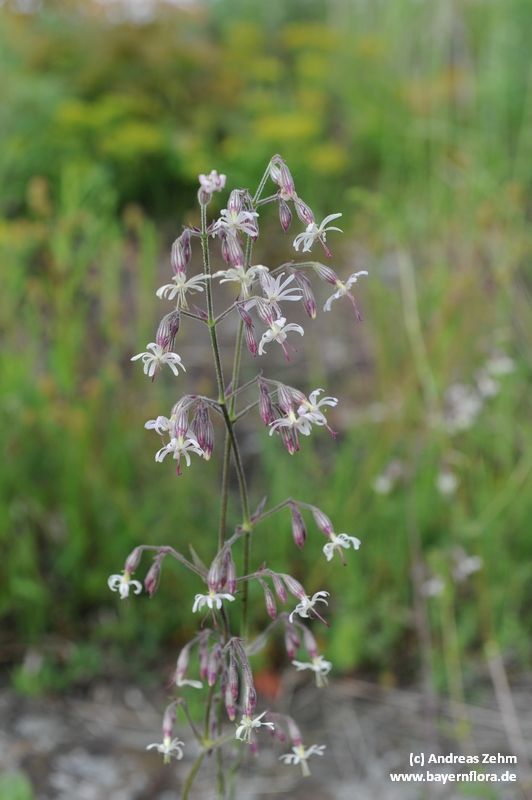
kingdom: Plantae
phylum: Tracheophyta
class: Magnoliopsida
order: Caryophyllales
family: Caryophyllaceae
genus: Silene
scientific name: Silene nutans
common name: Nottingham catchfly
